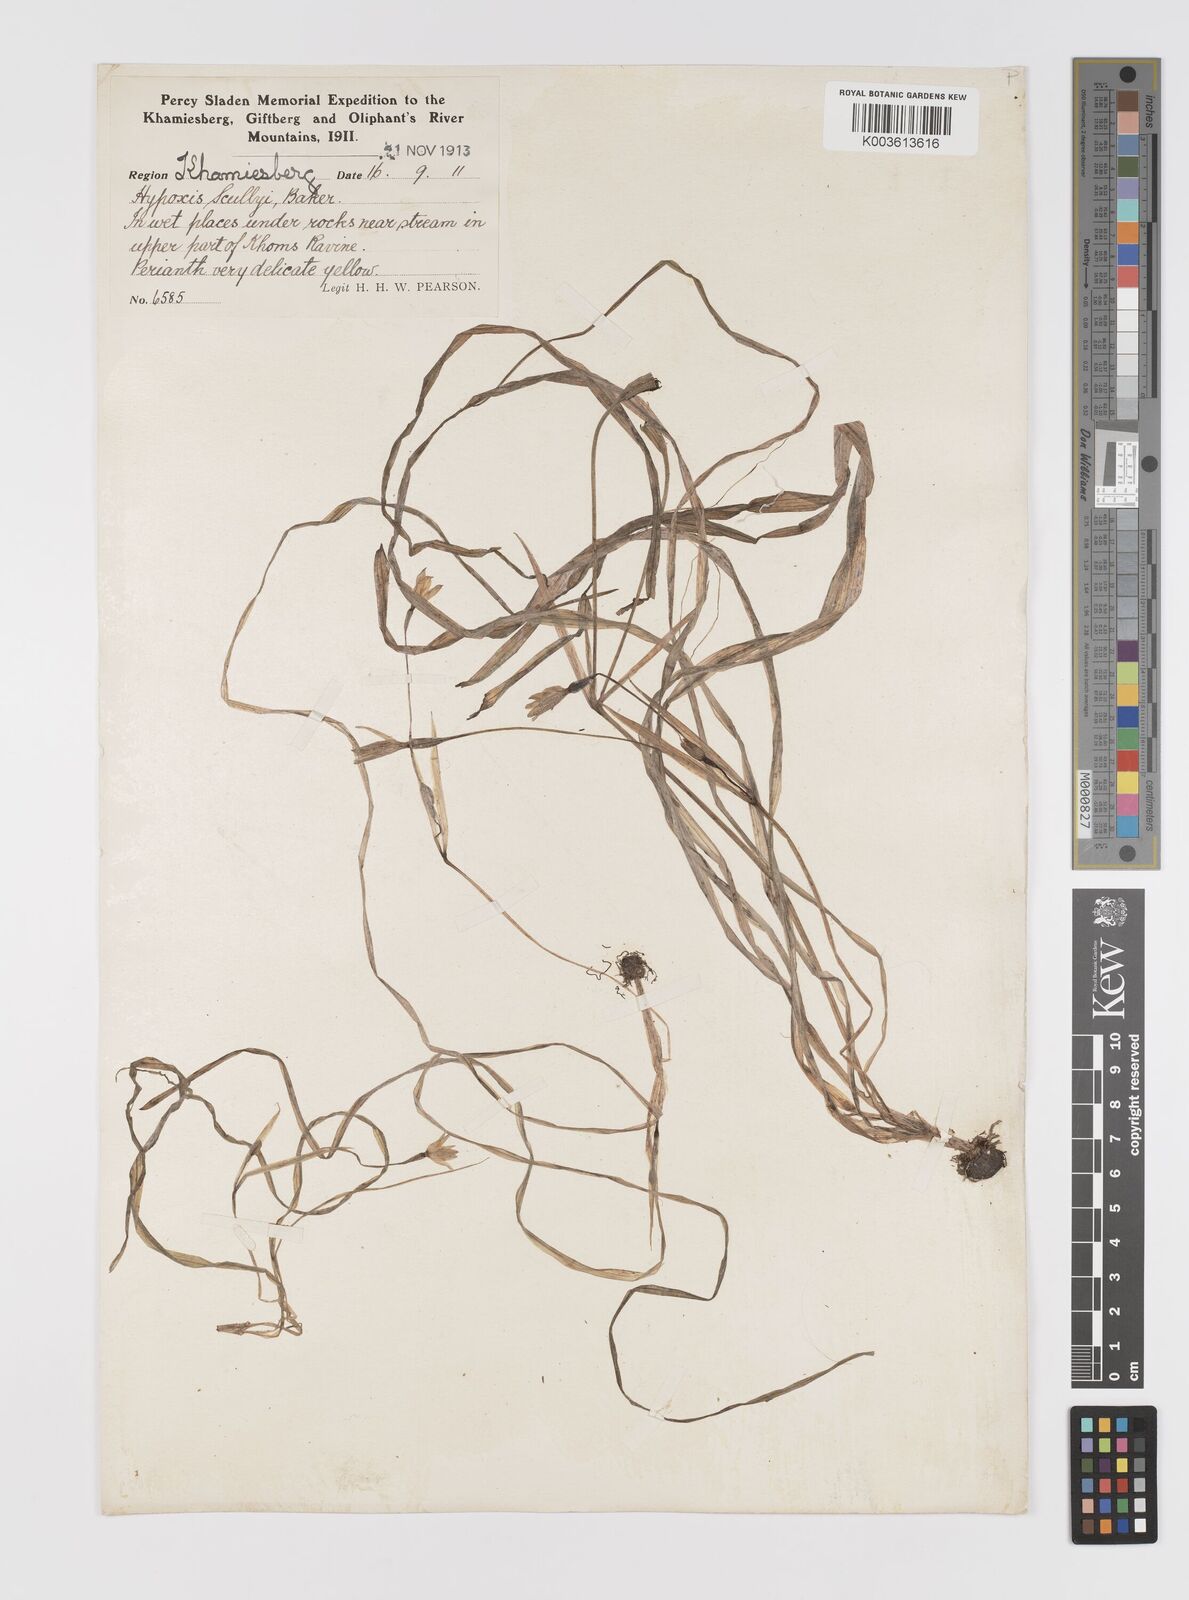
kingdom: Plantae
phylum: Tracheophyta
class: Liliopsida
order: Asparagales
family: Hypoxidaceae
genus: Pauridia
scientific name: Pauridia scullyi
